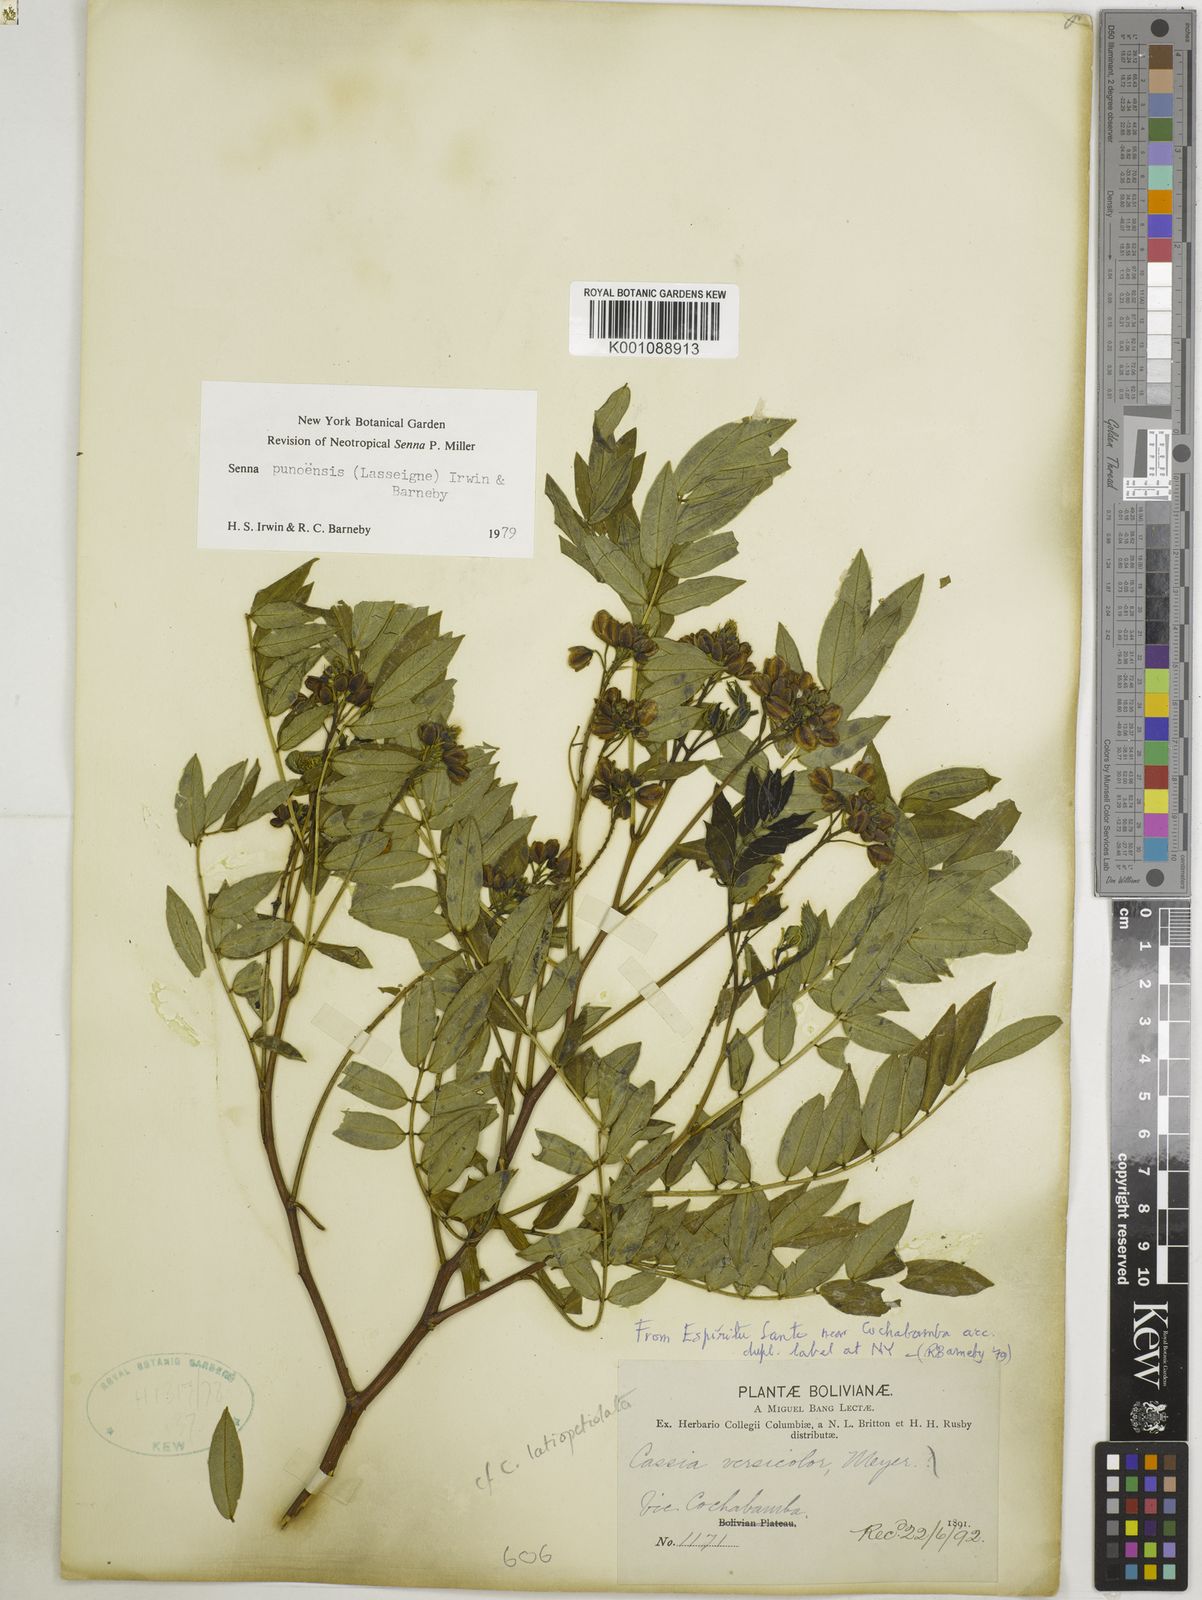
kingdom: Plantae
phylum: Tracheophyta
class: Magnoliopsida
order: Fabales
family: Fabaceae
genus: Senna
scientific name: Senna
